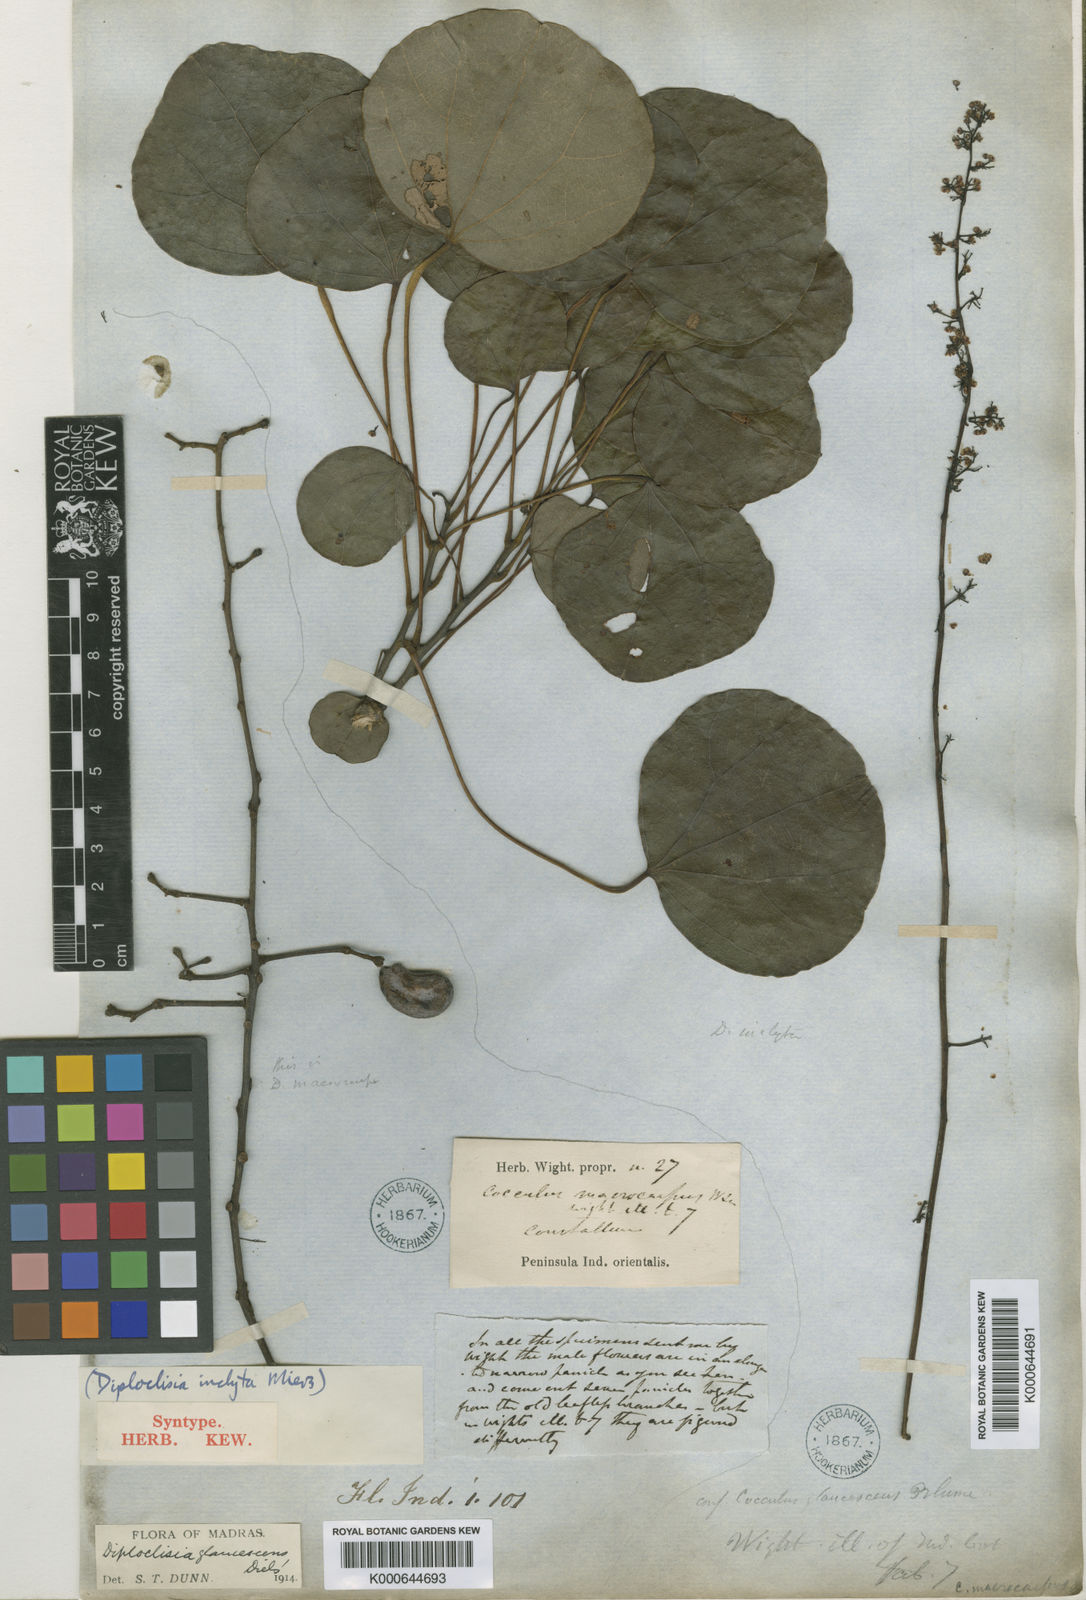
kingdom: Plantae
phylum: Tracheophyta
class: Magnoliopsida
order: Ranunculales
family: Menispermaceae
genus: Diploclisia
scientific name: Diploclisia glaucescens
